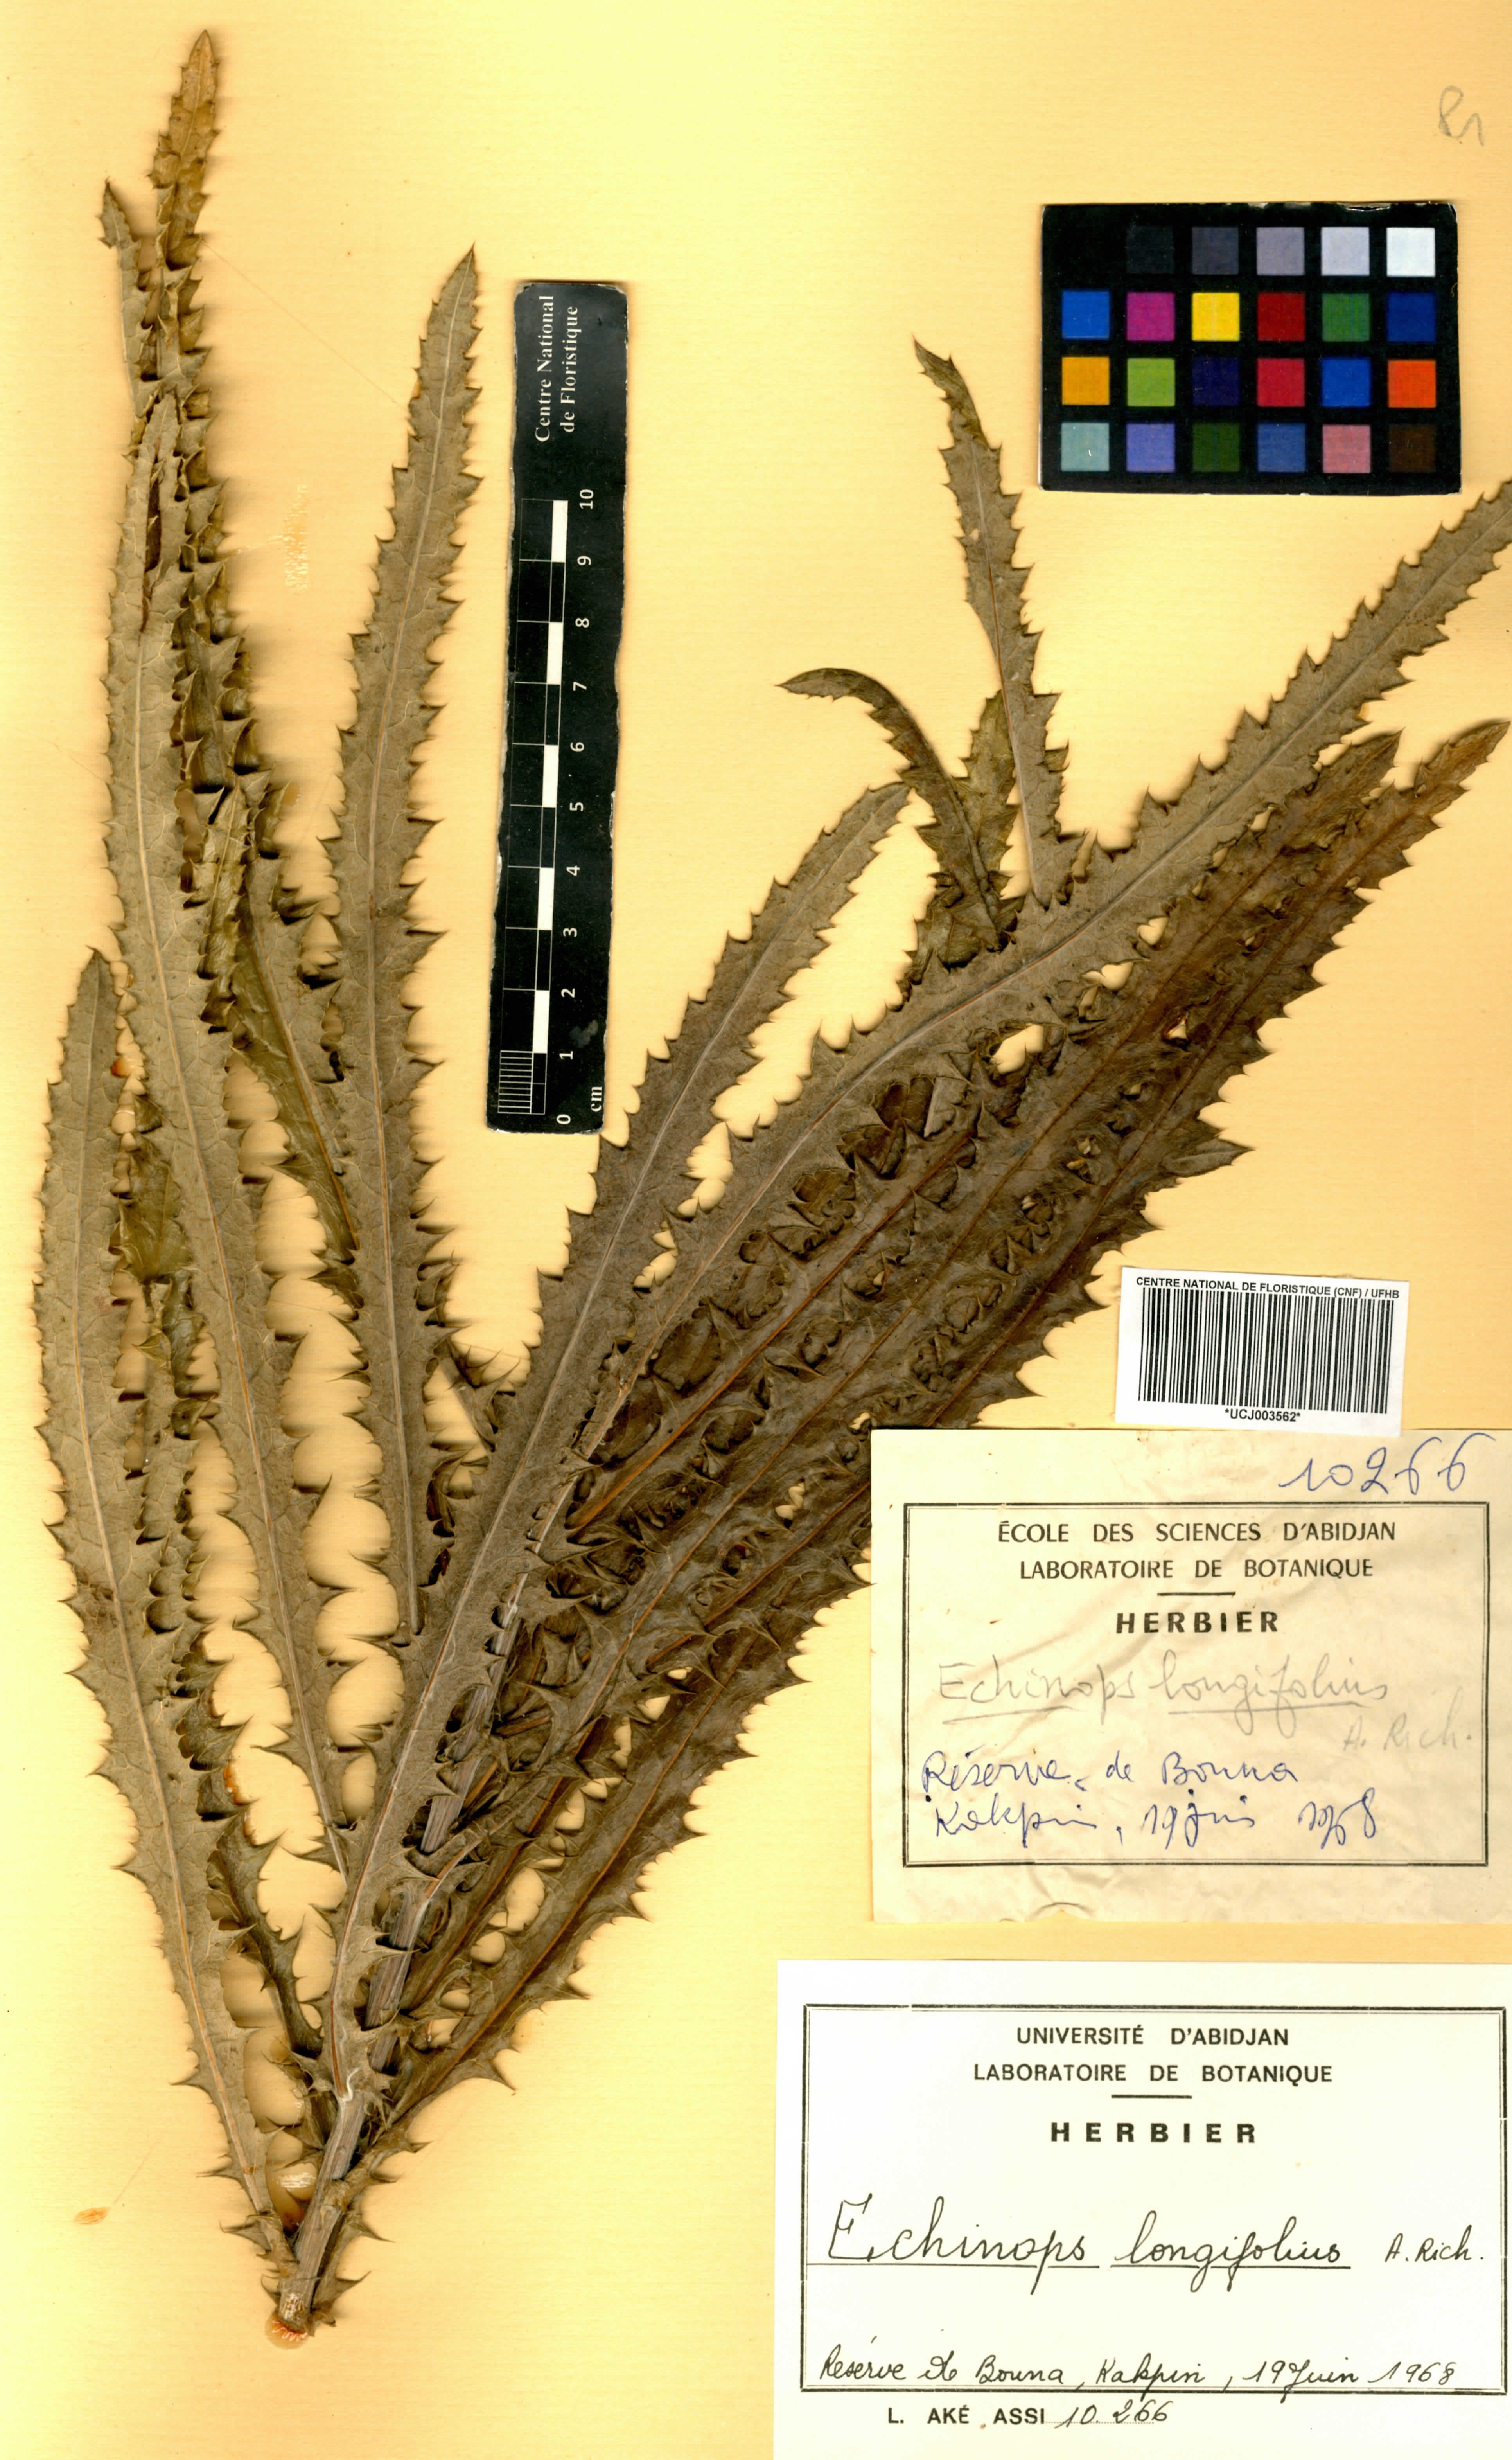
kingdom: Plantae
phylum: Tracheophyta
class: Magnoliopsida
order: Asterales
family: Asteraceae
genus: Echinops
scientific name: Echinops longifolius
